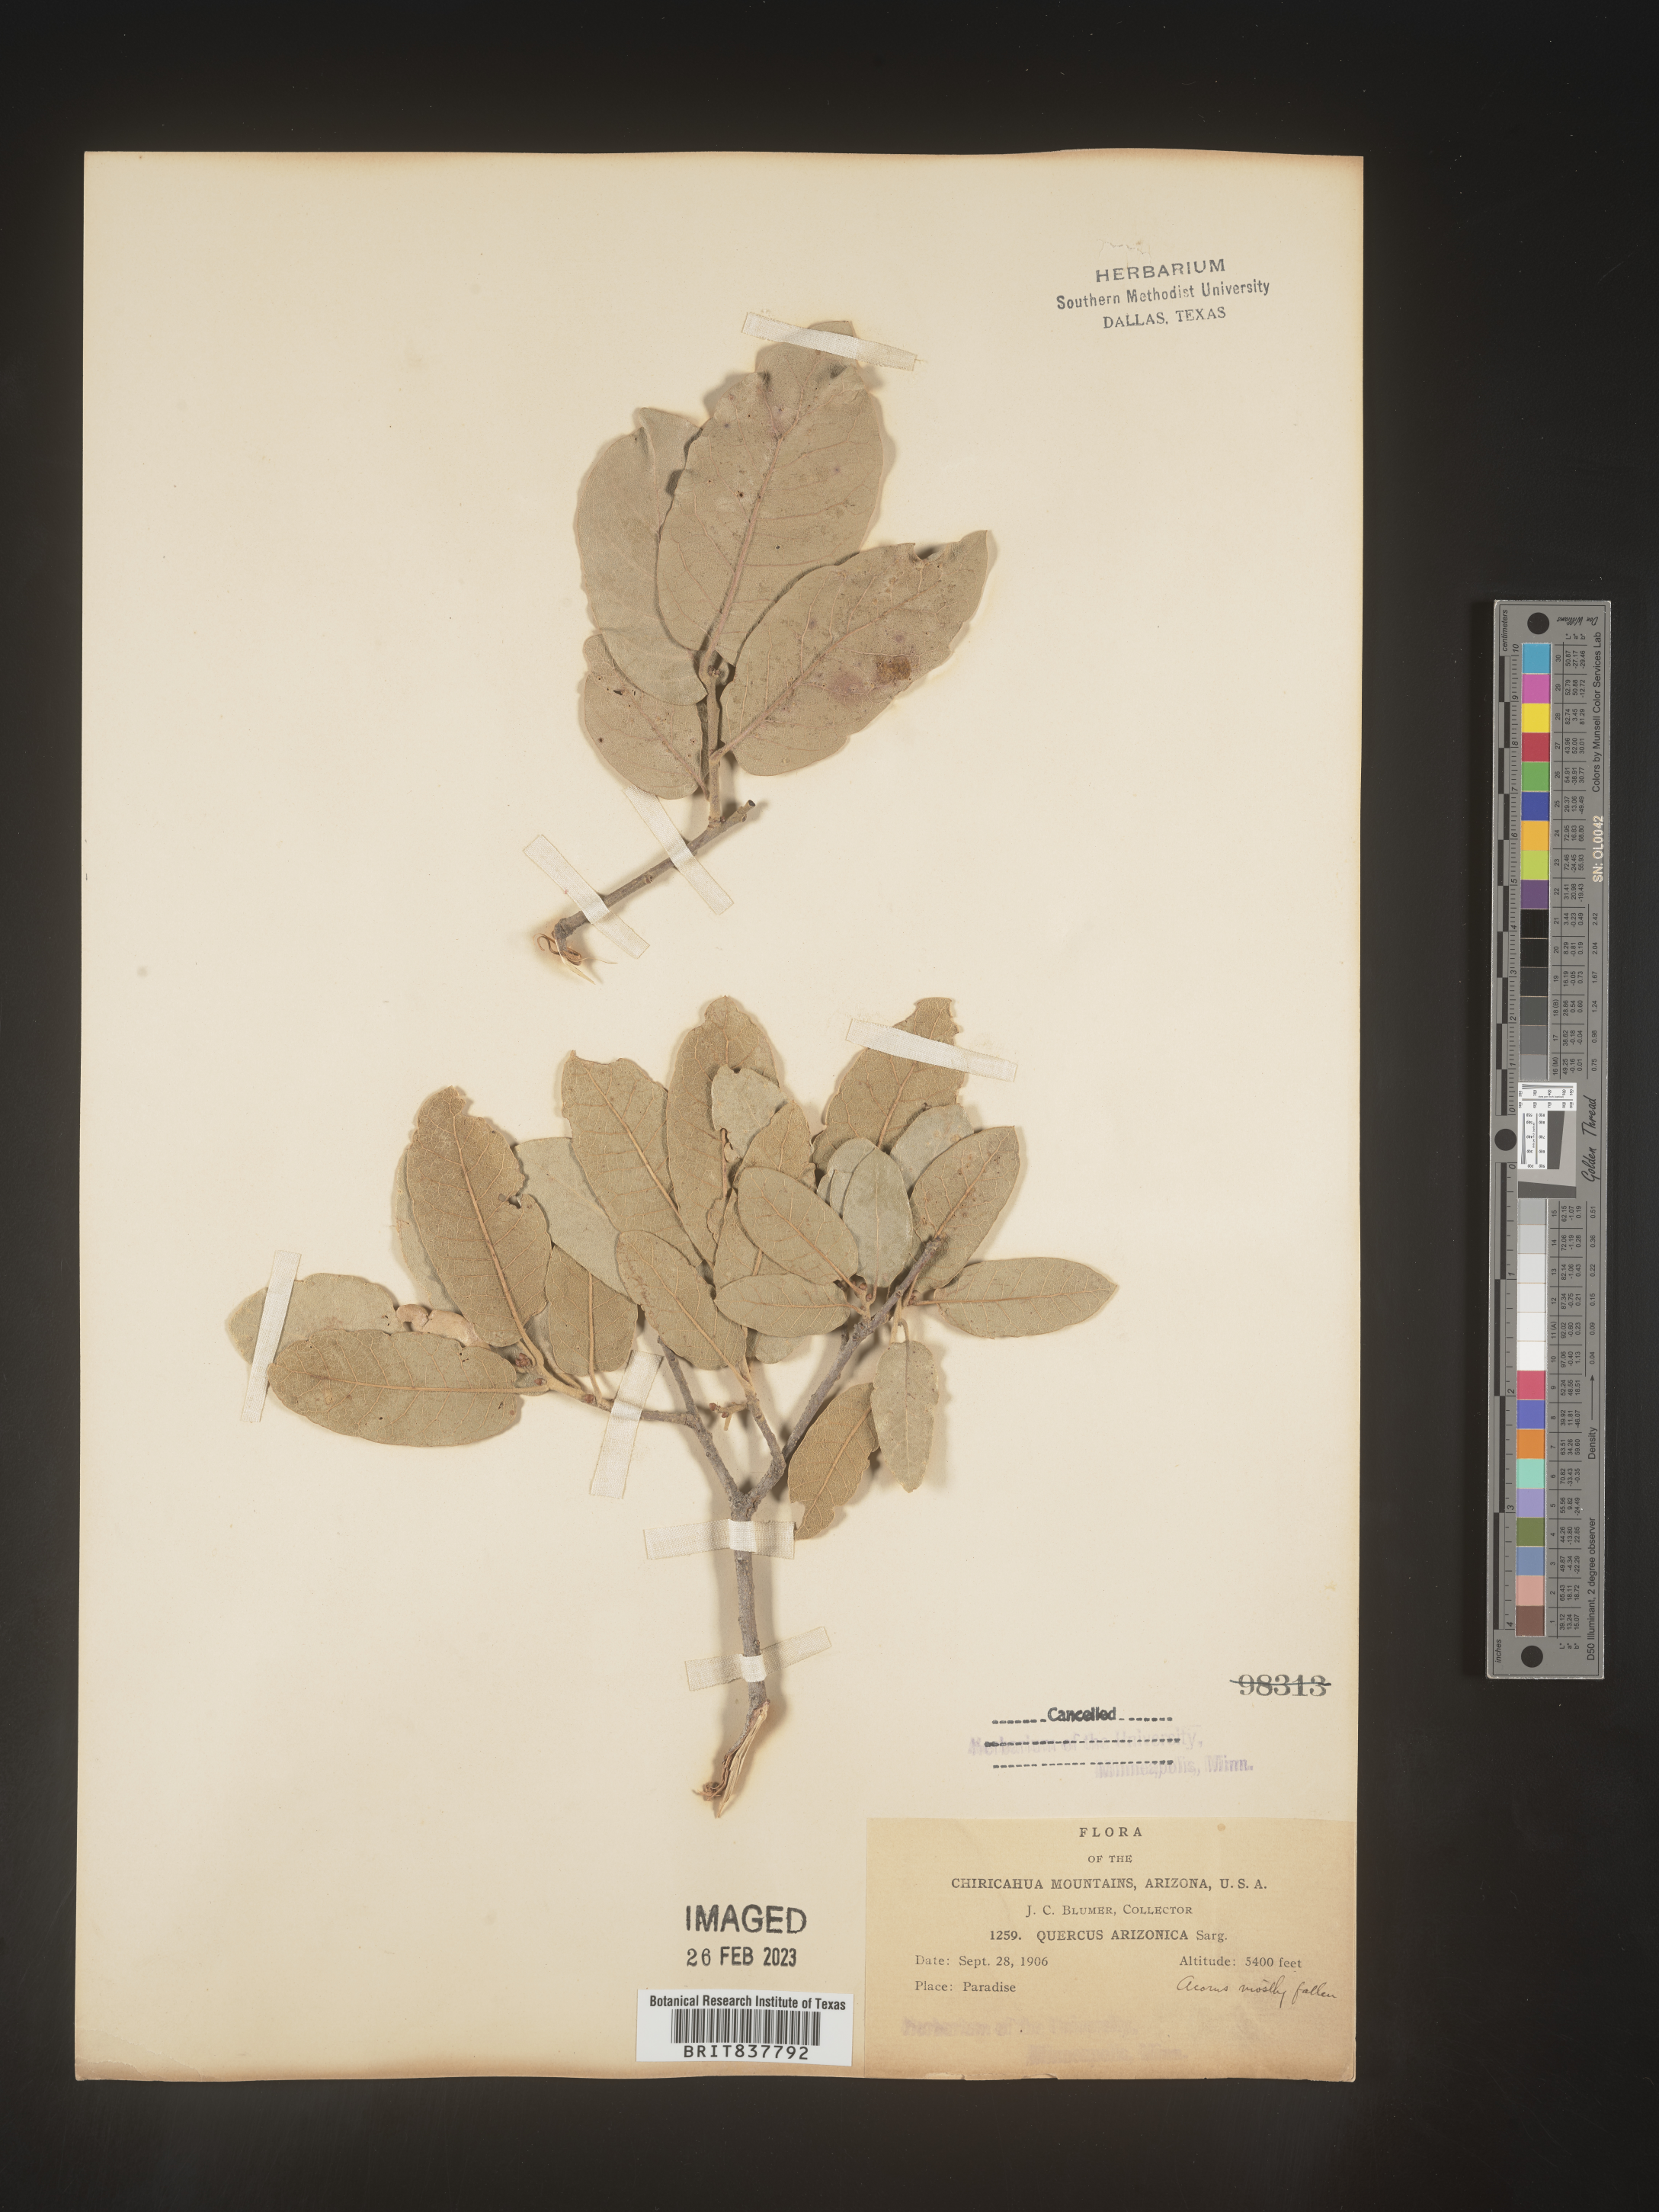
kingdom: Plantae
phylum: Tracheophyta
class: Magnoliopsida
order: Fagales
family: Fagaceae
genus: Quercus
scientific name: Quercus arizonica
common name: Arizona white oak
